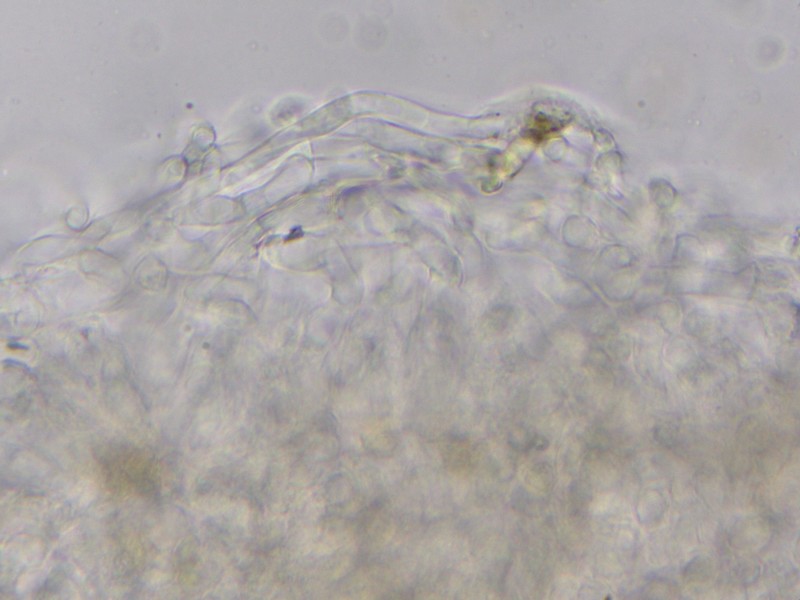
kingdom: Fungi
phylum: Basidiomycota
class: Agaricomycetes
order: Agaricales
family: Crepidotaceae
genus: Pellidiscus
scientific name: Pellidiscus pallidus
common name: skålformet muslingesvamp
